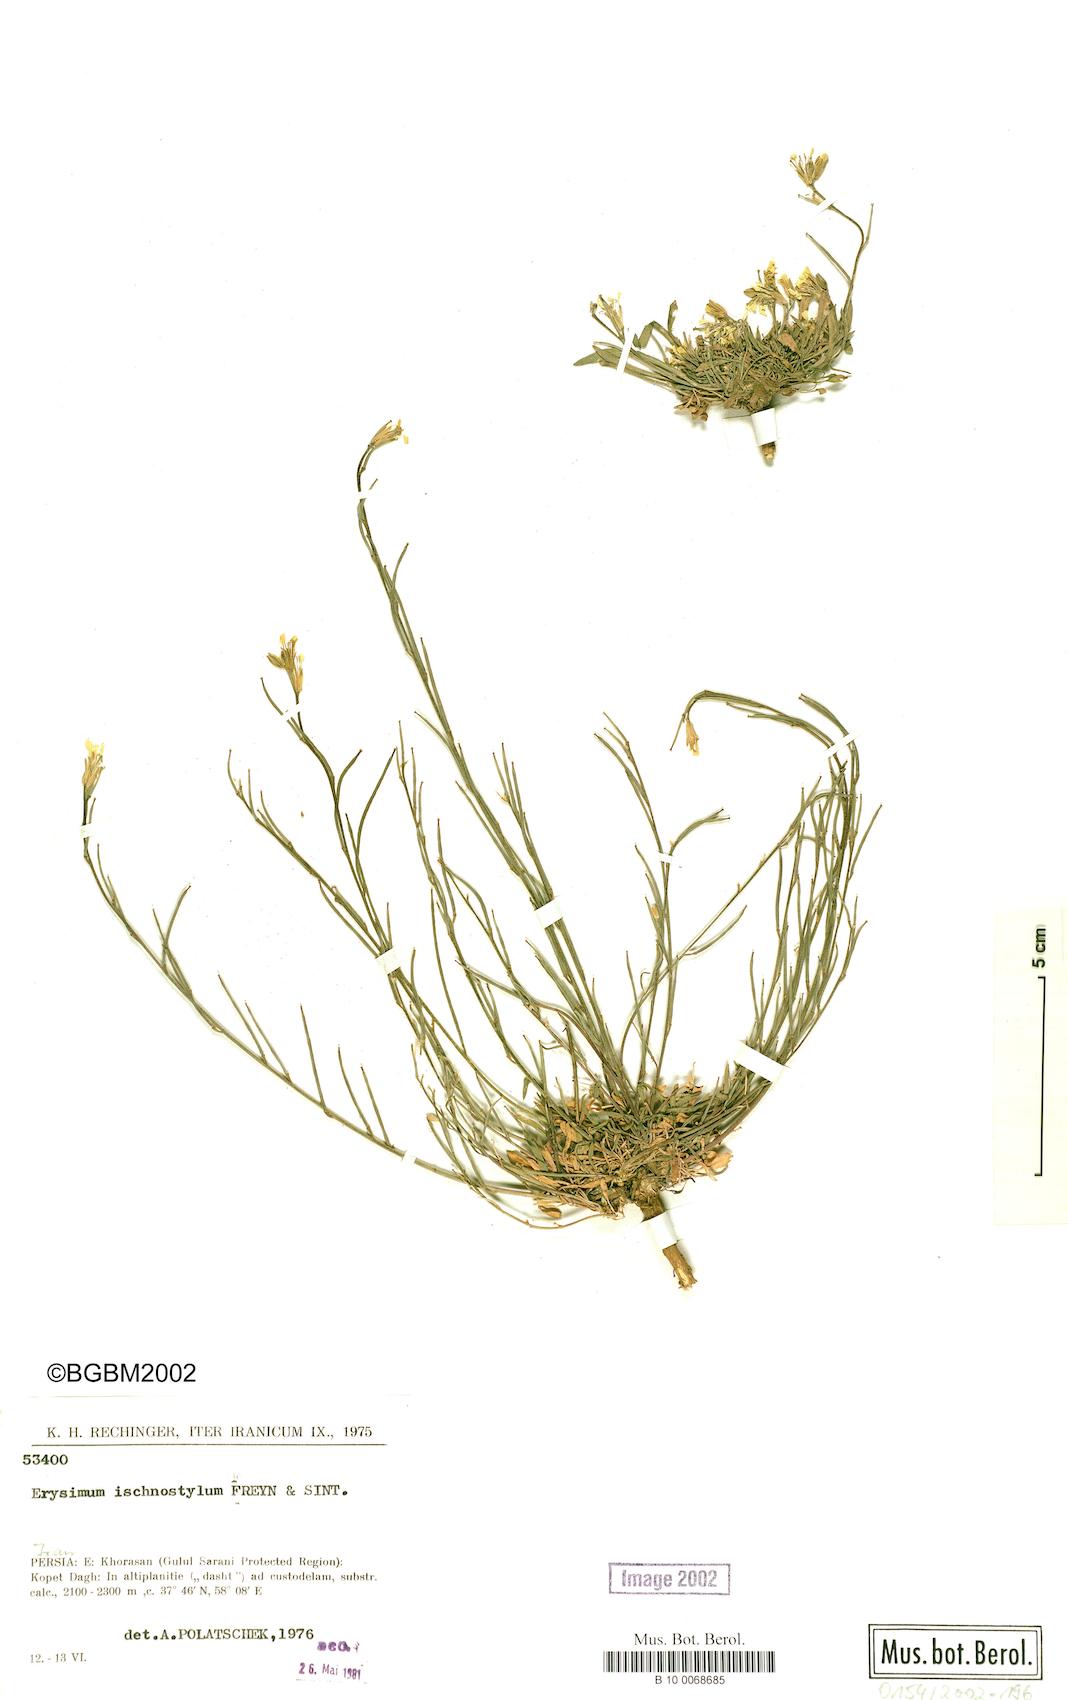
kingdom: Plantae
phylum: Tracheophyta
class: Magnoliopsida
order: Brassicales
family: Brassicaceae
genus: Erysimum
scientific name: Erysimum ischnostylum
